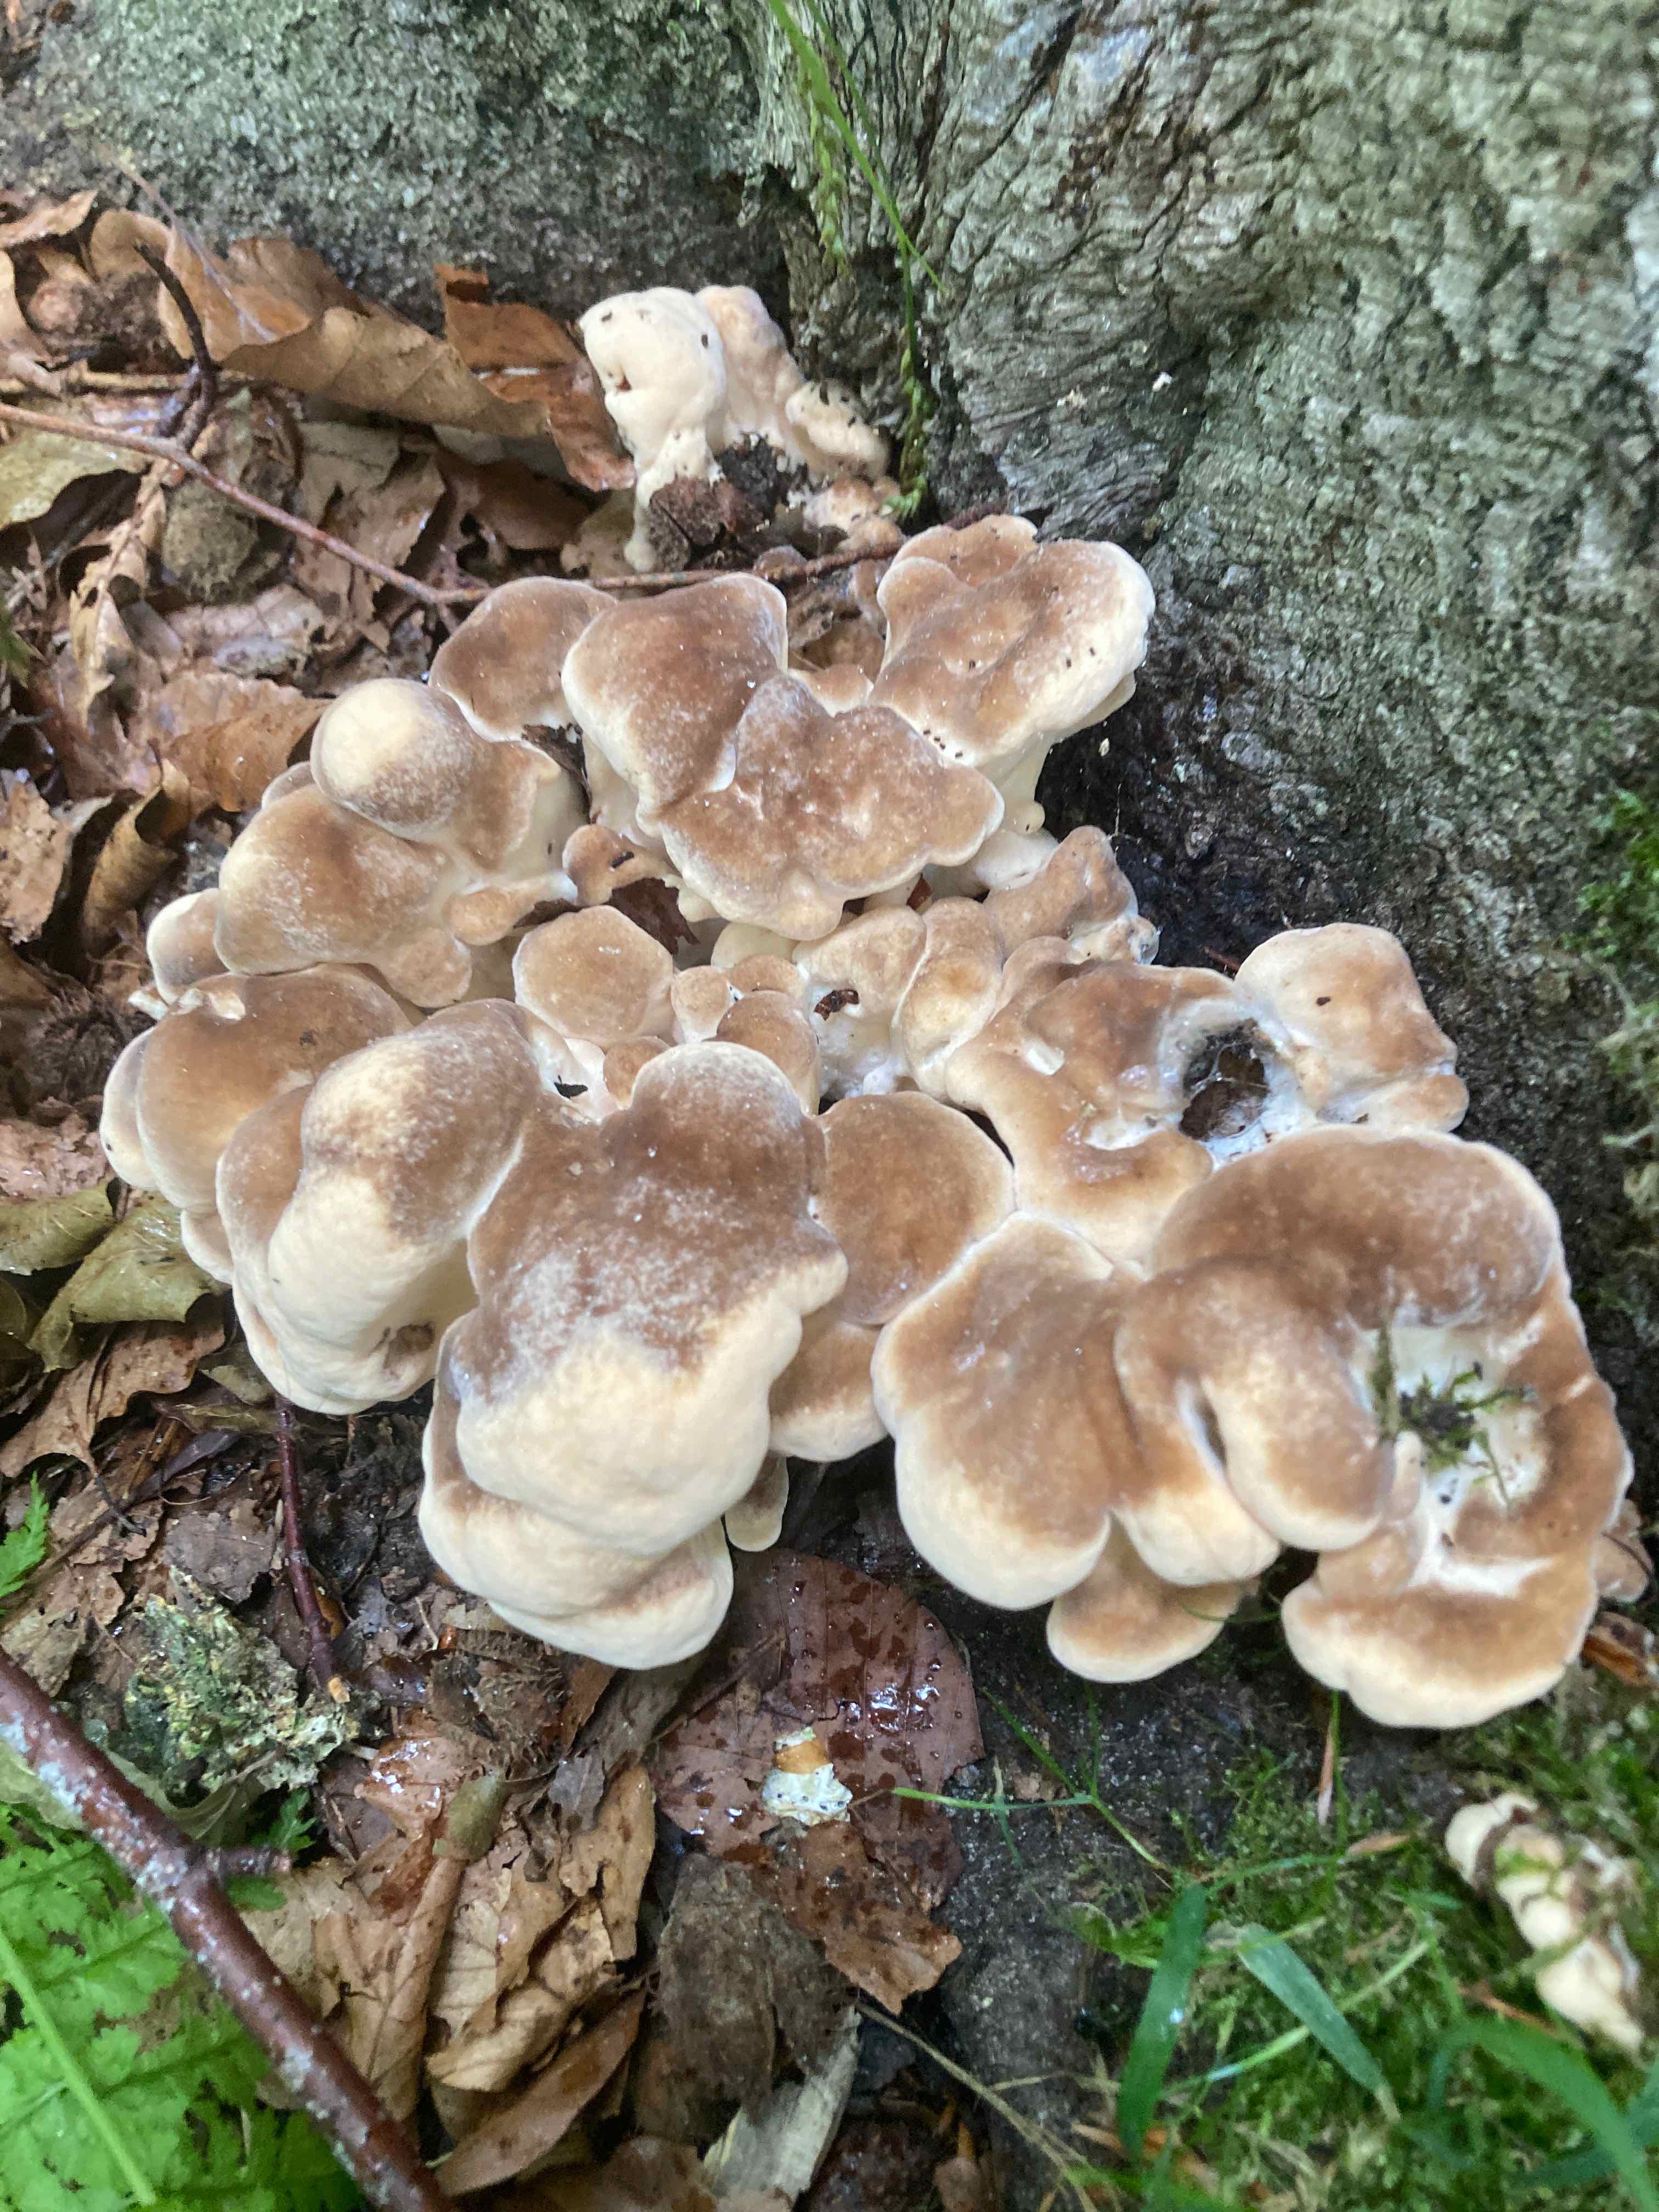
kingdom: Fungi
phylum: Basidiomycota
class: Agaricomycetes
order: Polyporales
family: Meripilaceae
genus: Meripilus
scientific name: Meripilus giganteus
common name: kæmpeporesvamp
